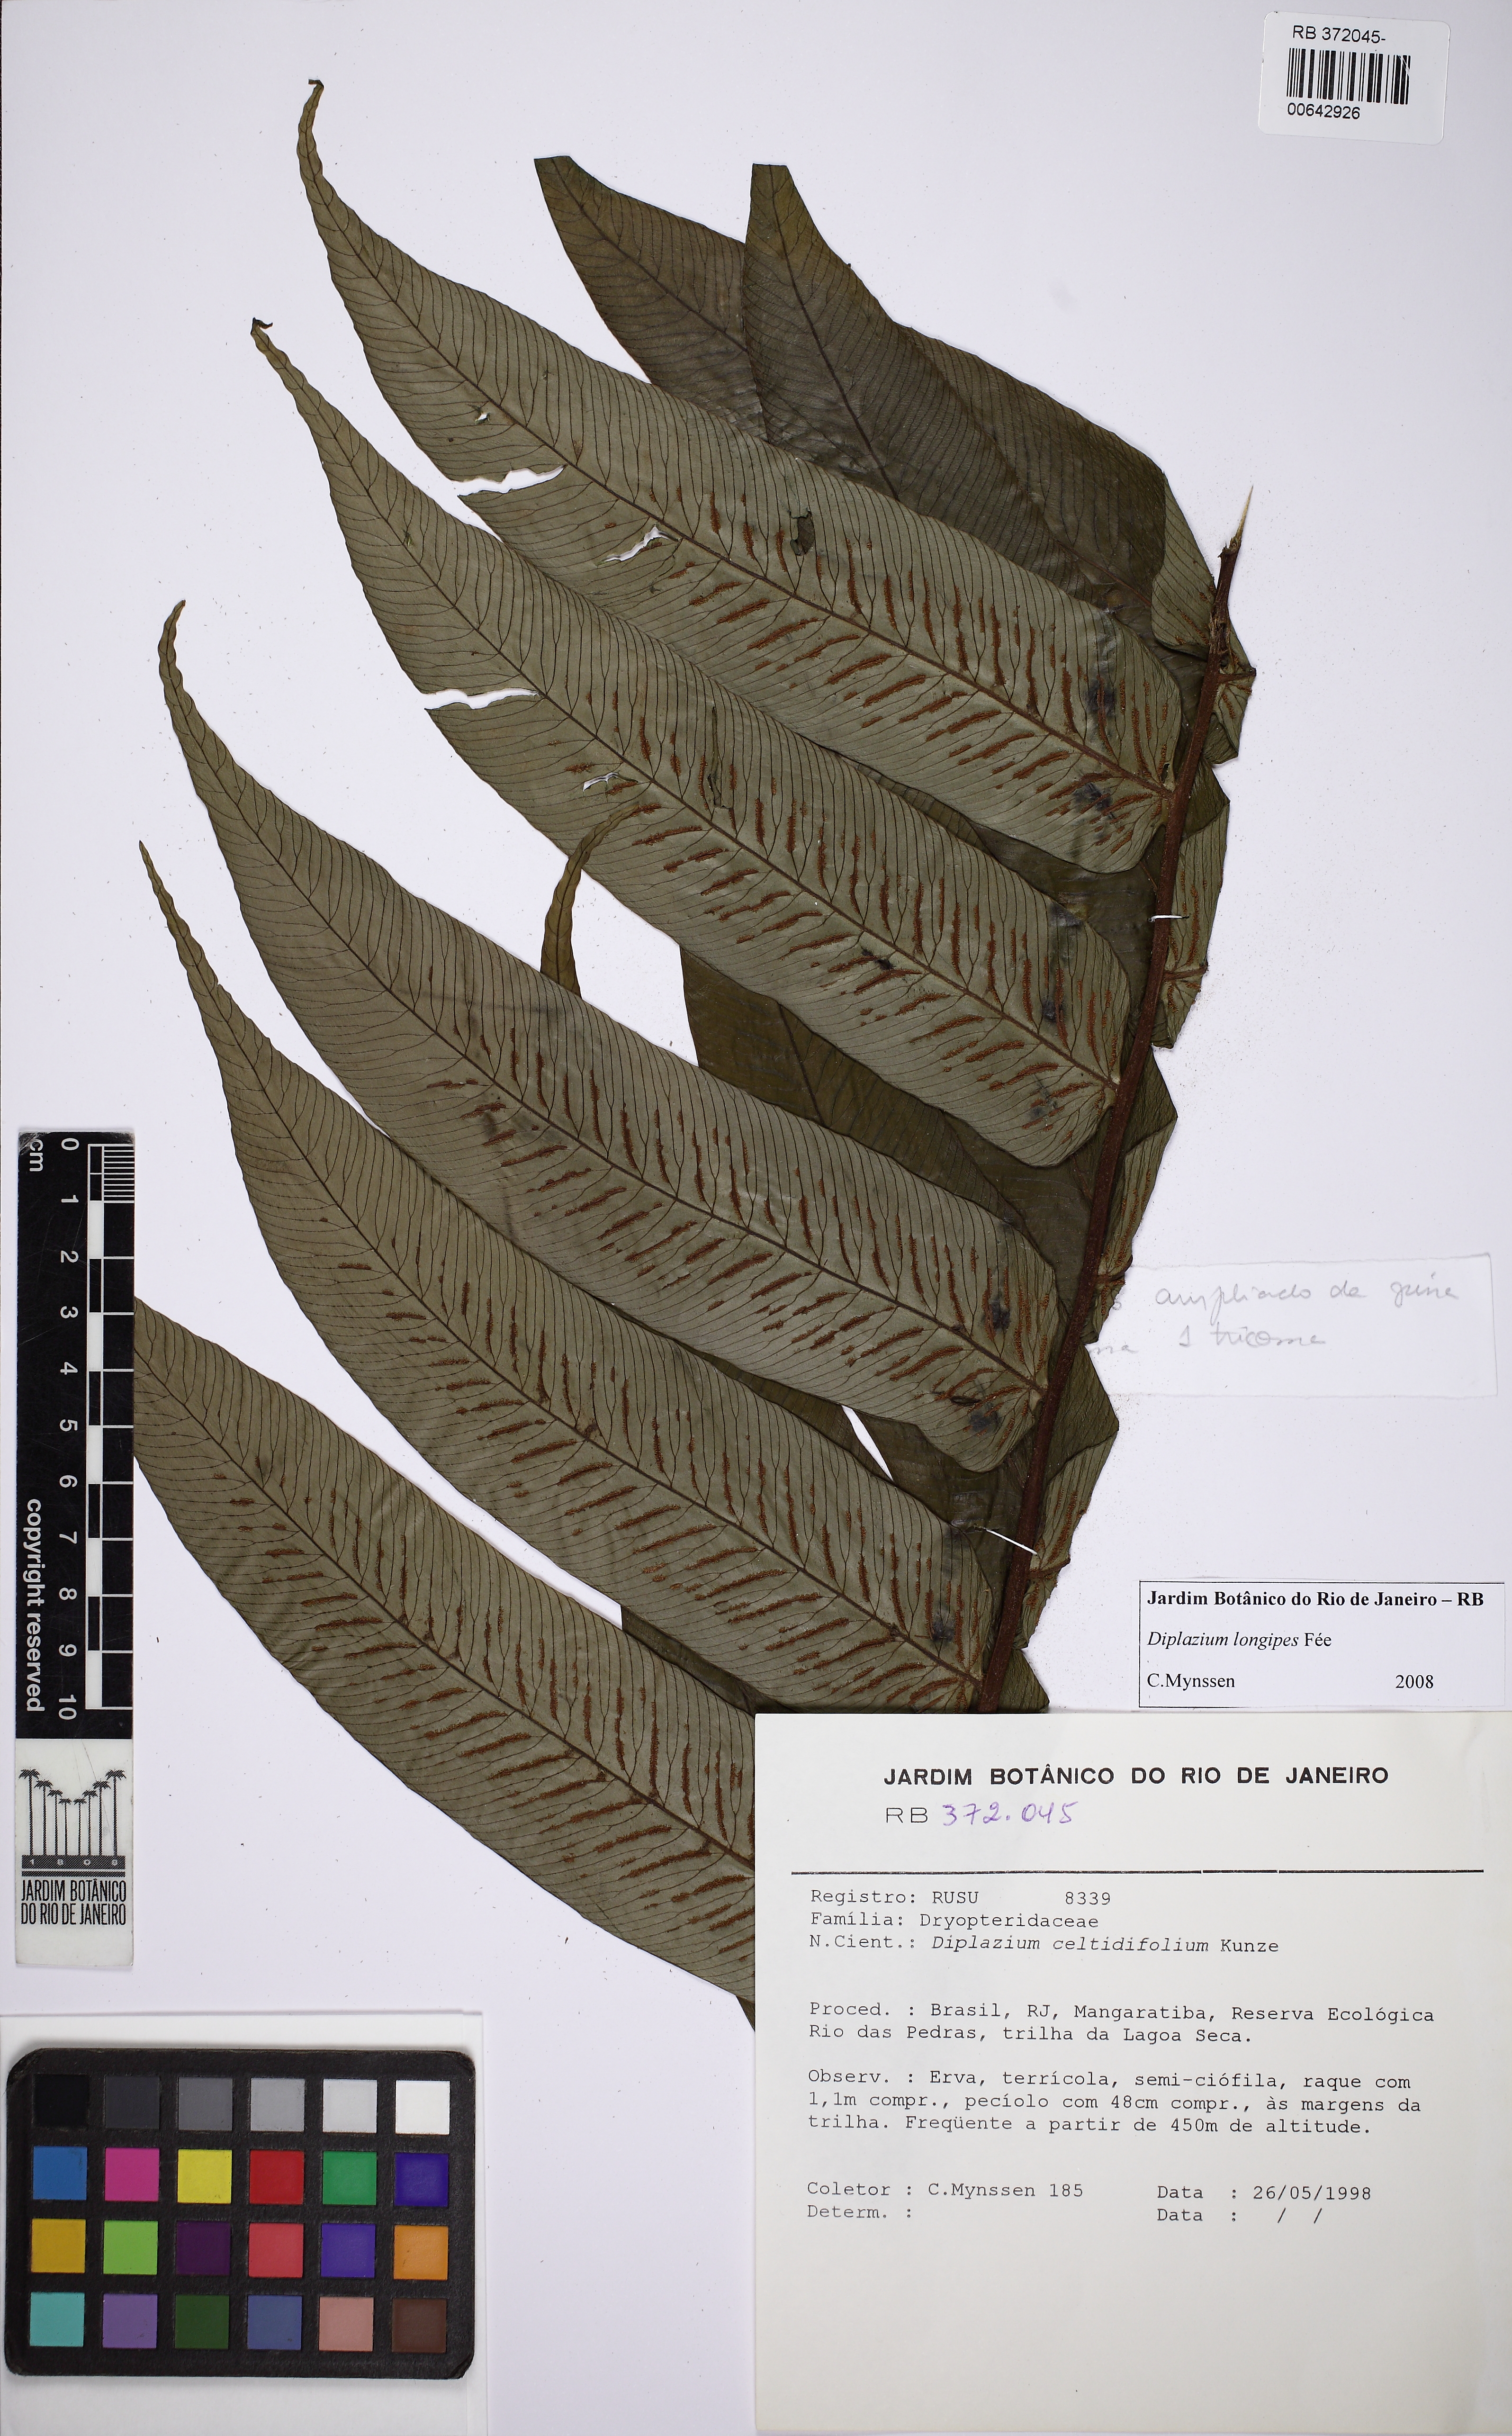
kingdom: Plantae
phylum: Tracheophyta
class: Polypodiopsida
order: Polypodiales
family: Athyriaceae
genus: Diplazium
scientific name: Diplazium longipes
